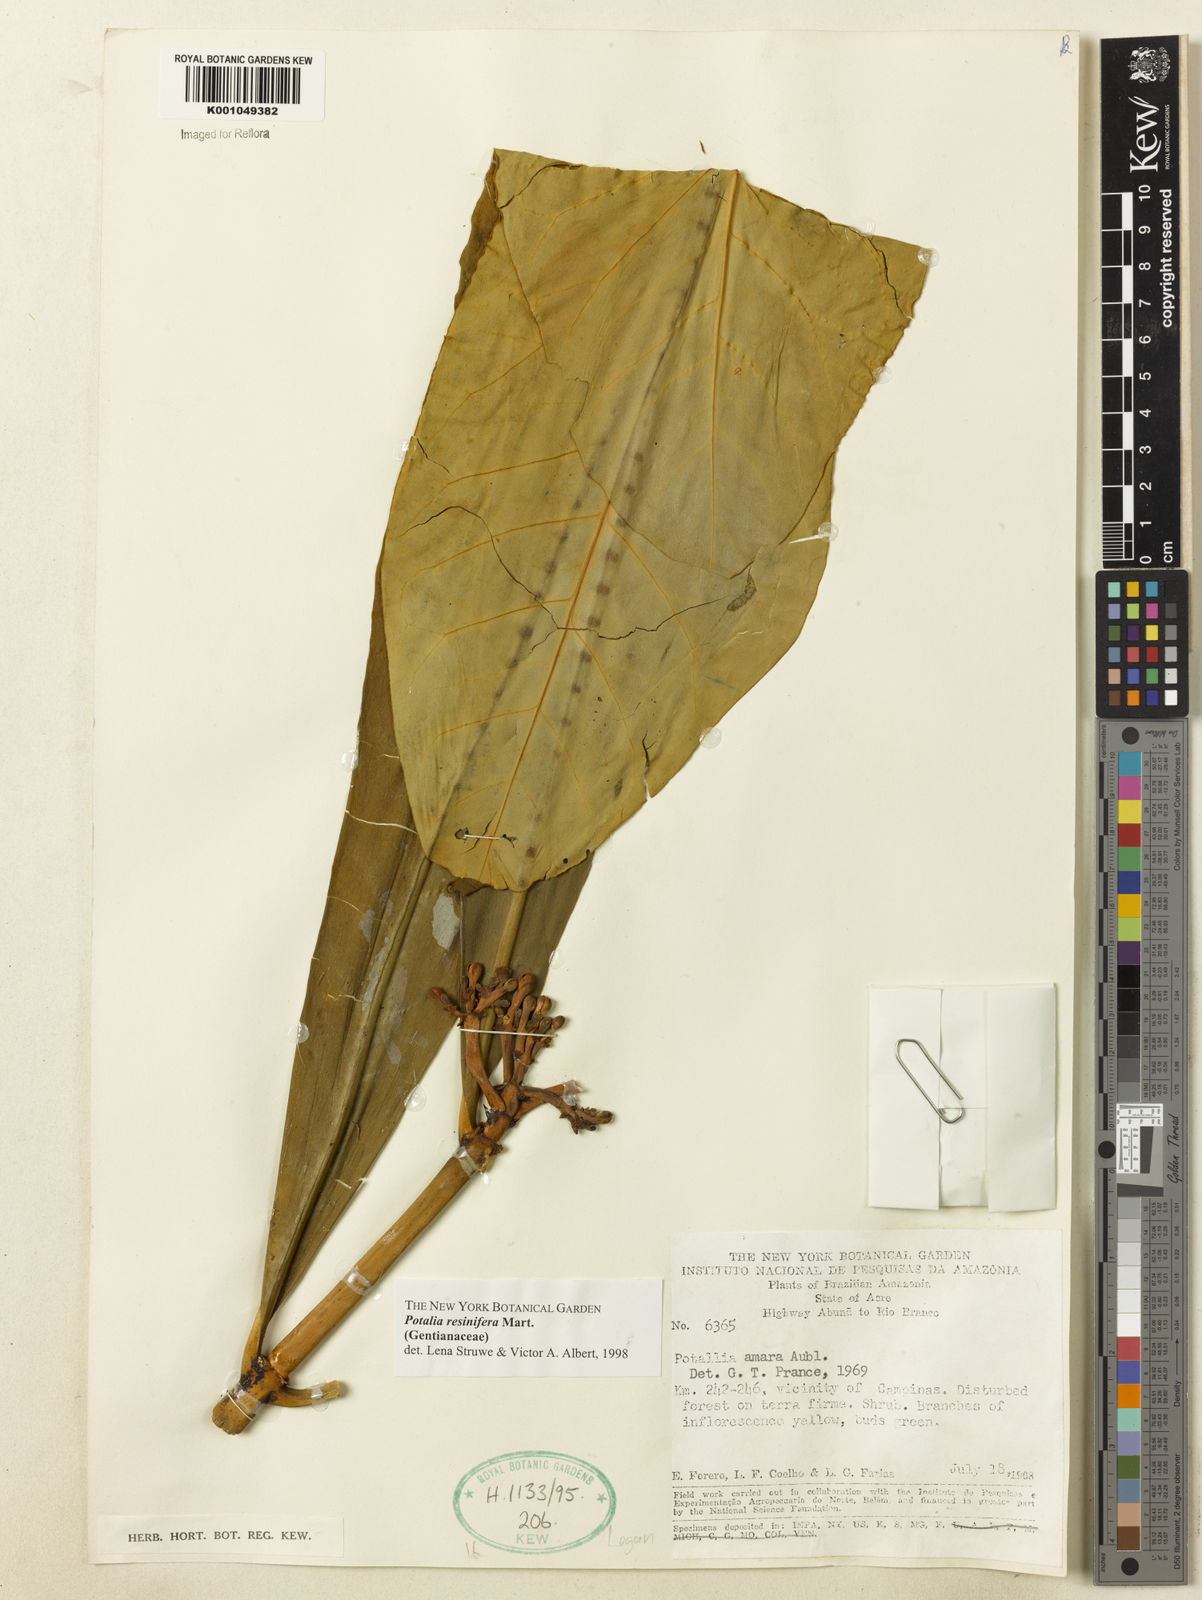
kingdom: Plantae
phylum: Tracheophyta
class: Magnoliopsida
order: Gentianales
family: Gentianaceae
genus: Potalia
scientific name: Potalia resinifera
